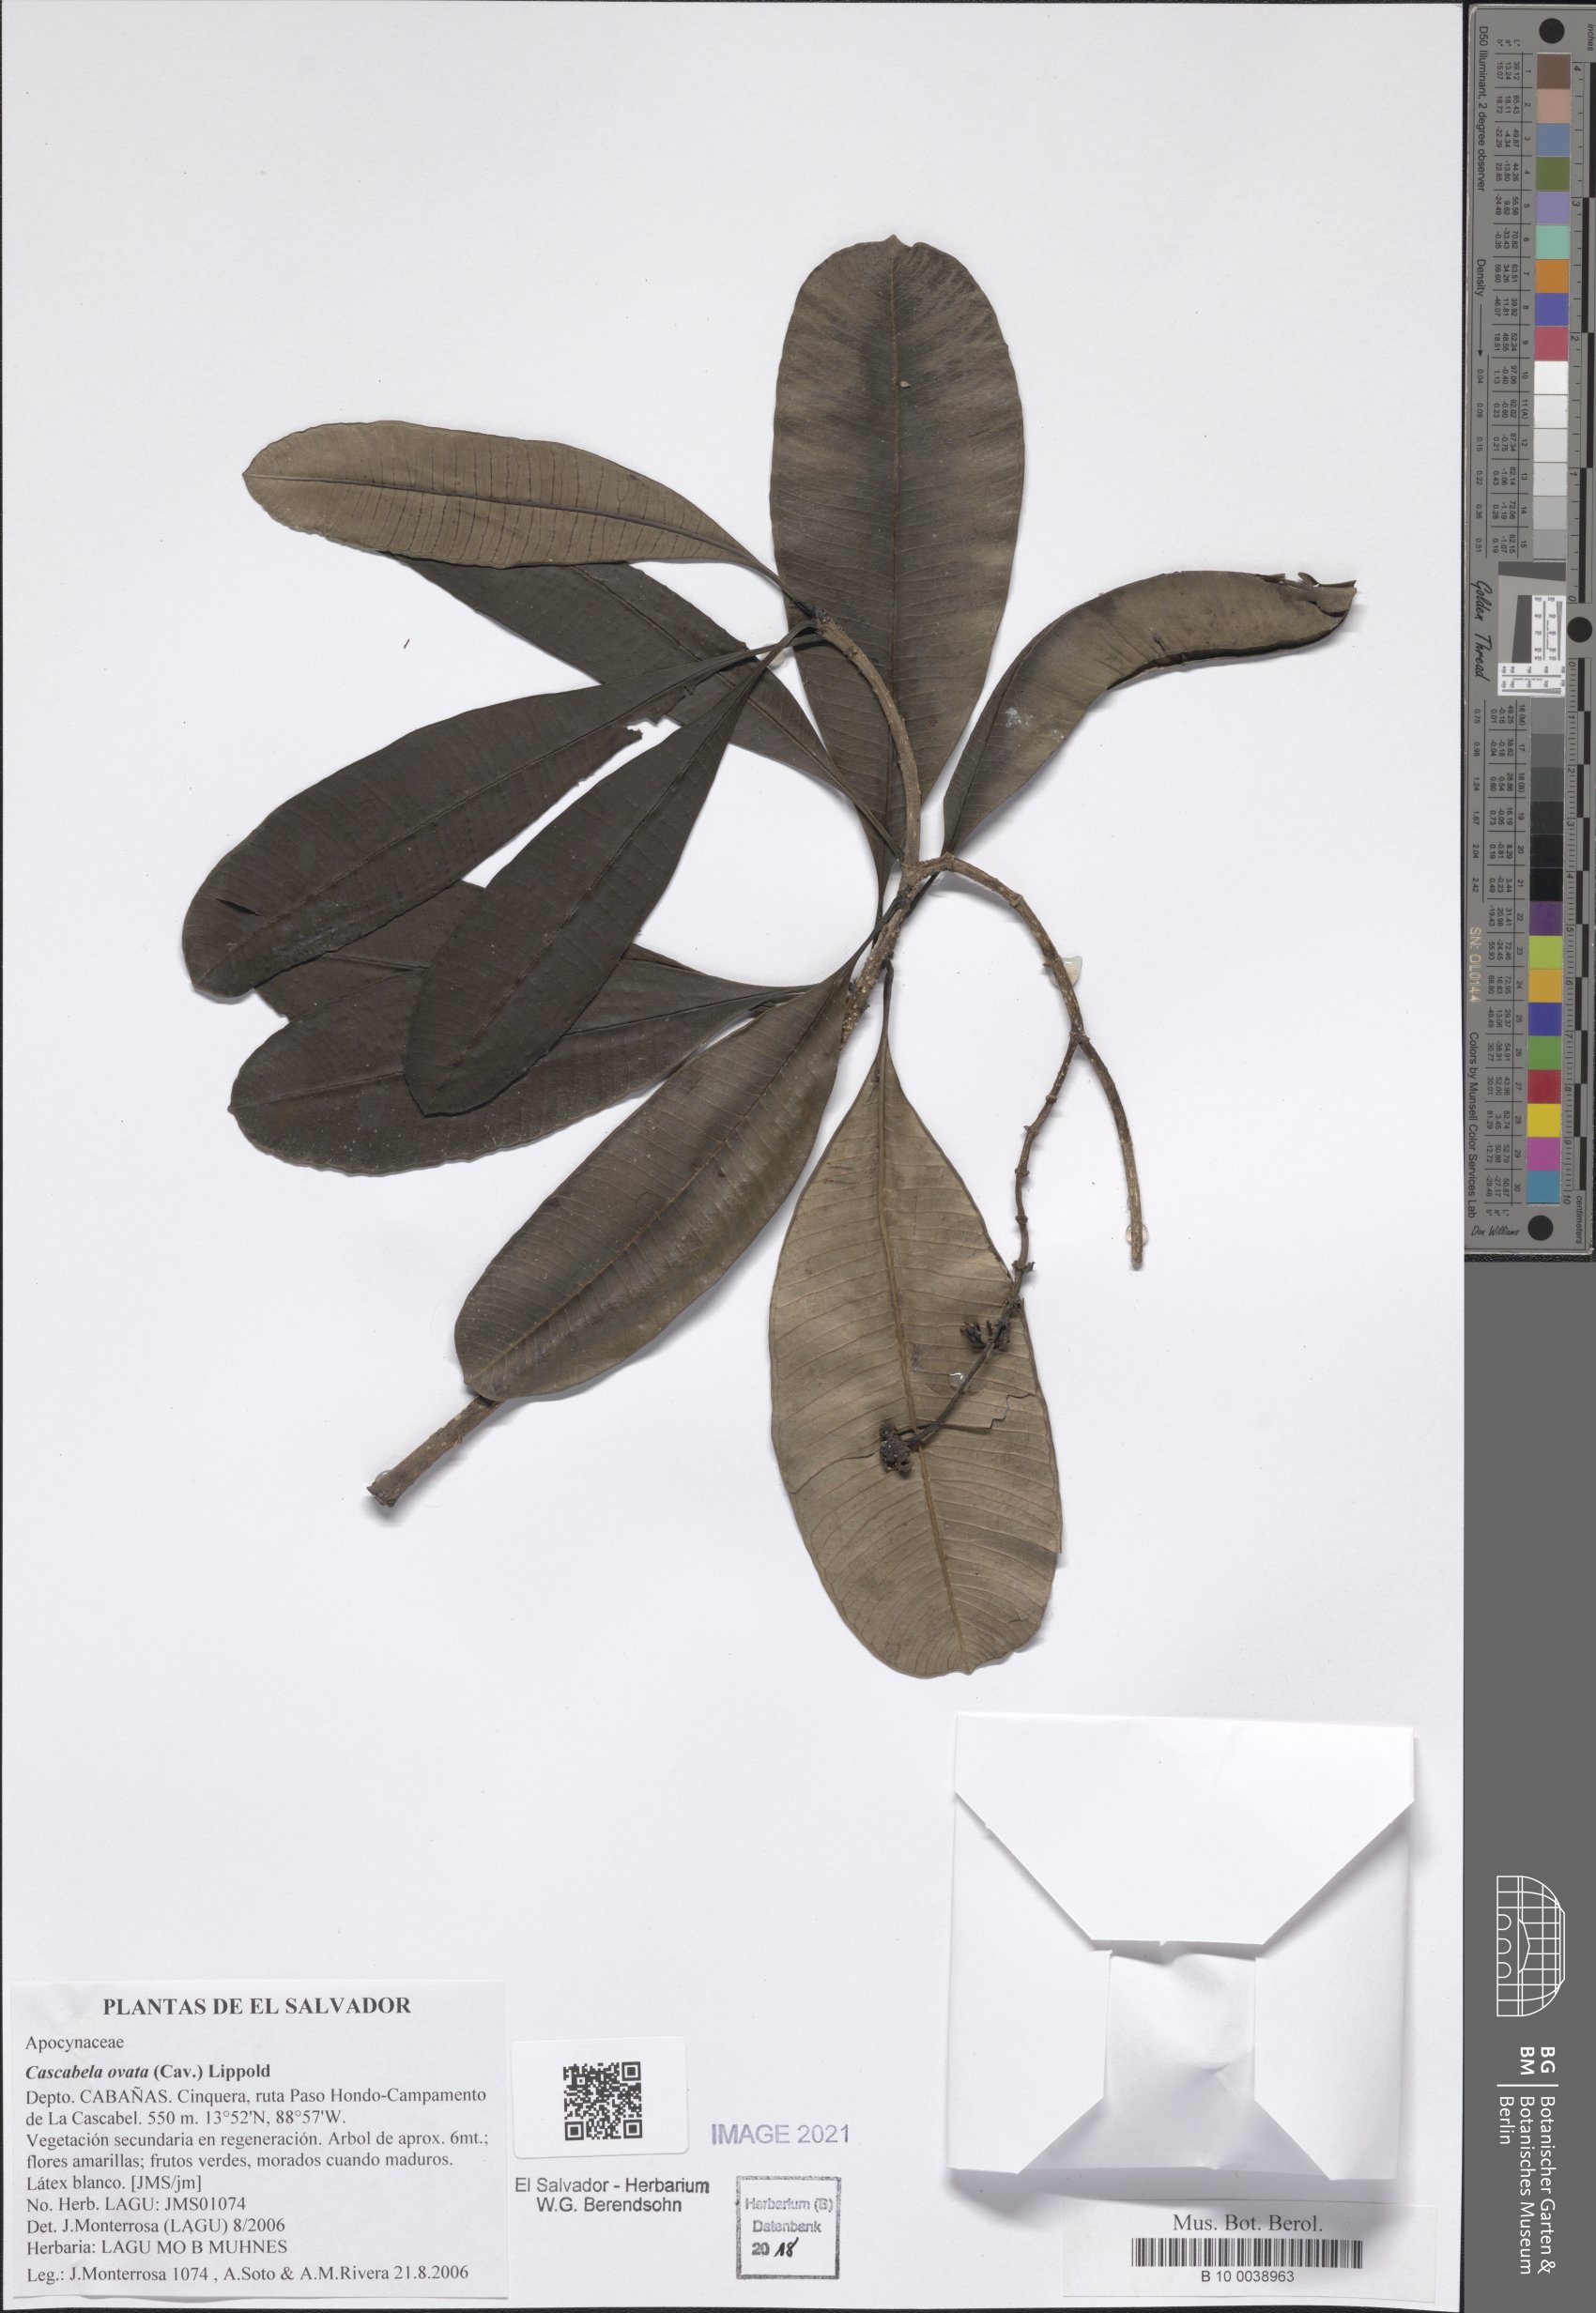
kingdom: Plantae
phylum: Tracheophyta
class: Magnoliopsida
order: Gentianales
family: Apocynaceae
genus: Cascabela
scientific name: Cascabela ovata
